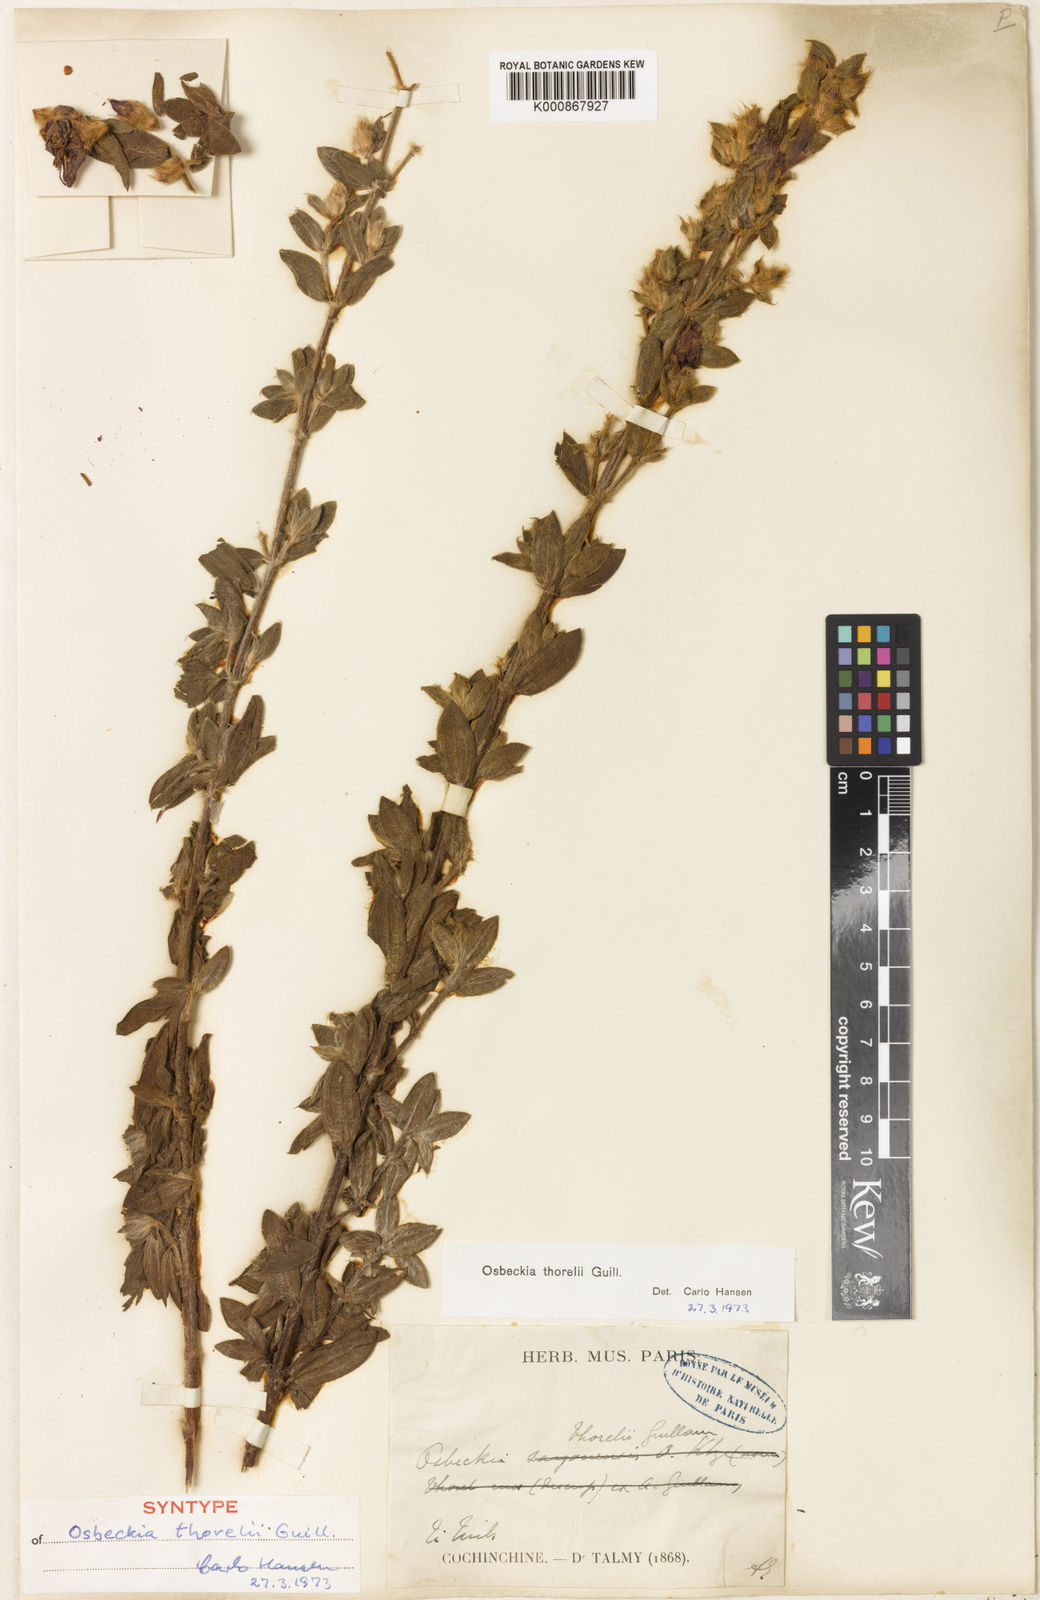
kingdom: Plantae
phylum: Tracheophyta
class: Magnoliopsida
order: Myrtales
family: Melastomataceae
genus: Osbeckia
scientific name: Osbeckia thorelii
